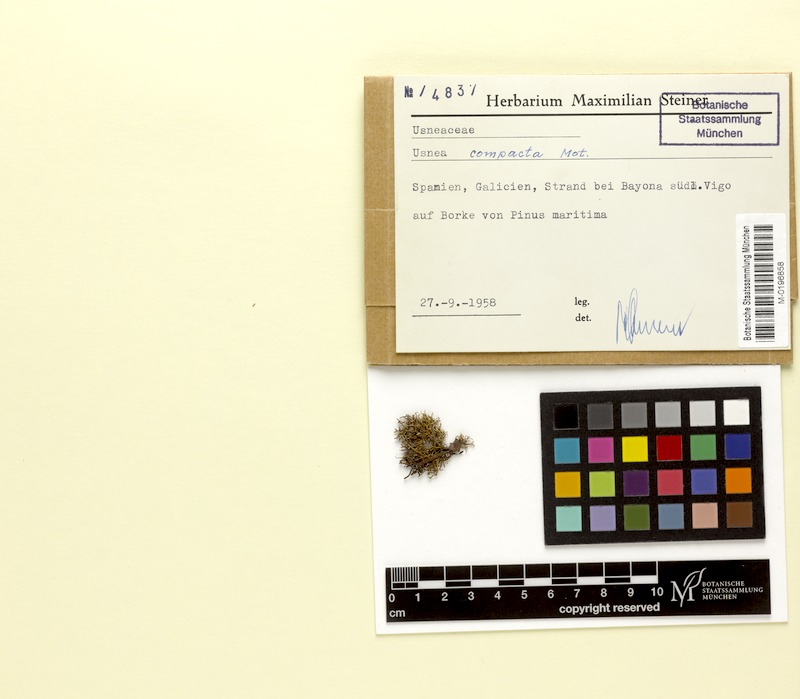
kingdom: Fungi
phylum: Ascomycota
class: Lecanoromycetes
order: Lecanorales
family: Parmeliaceae
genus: Usnea
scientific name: Usnea glabrescens
